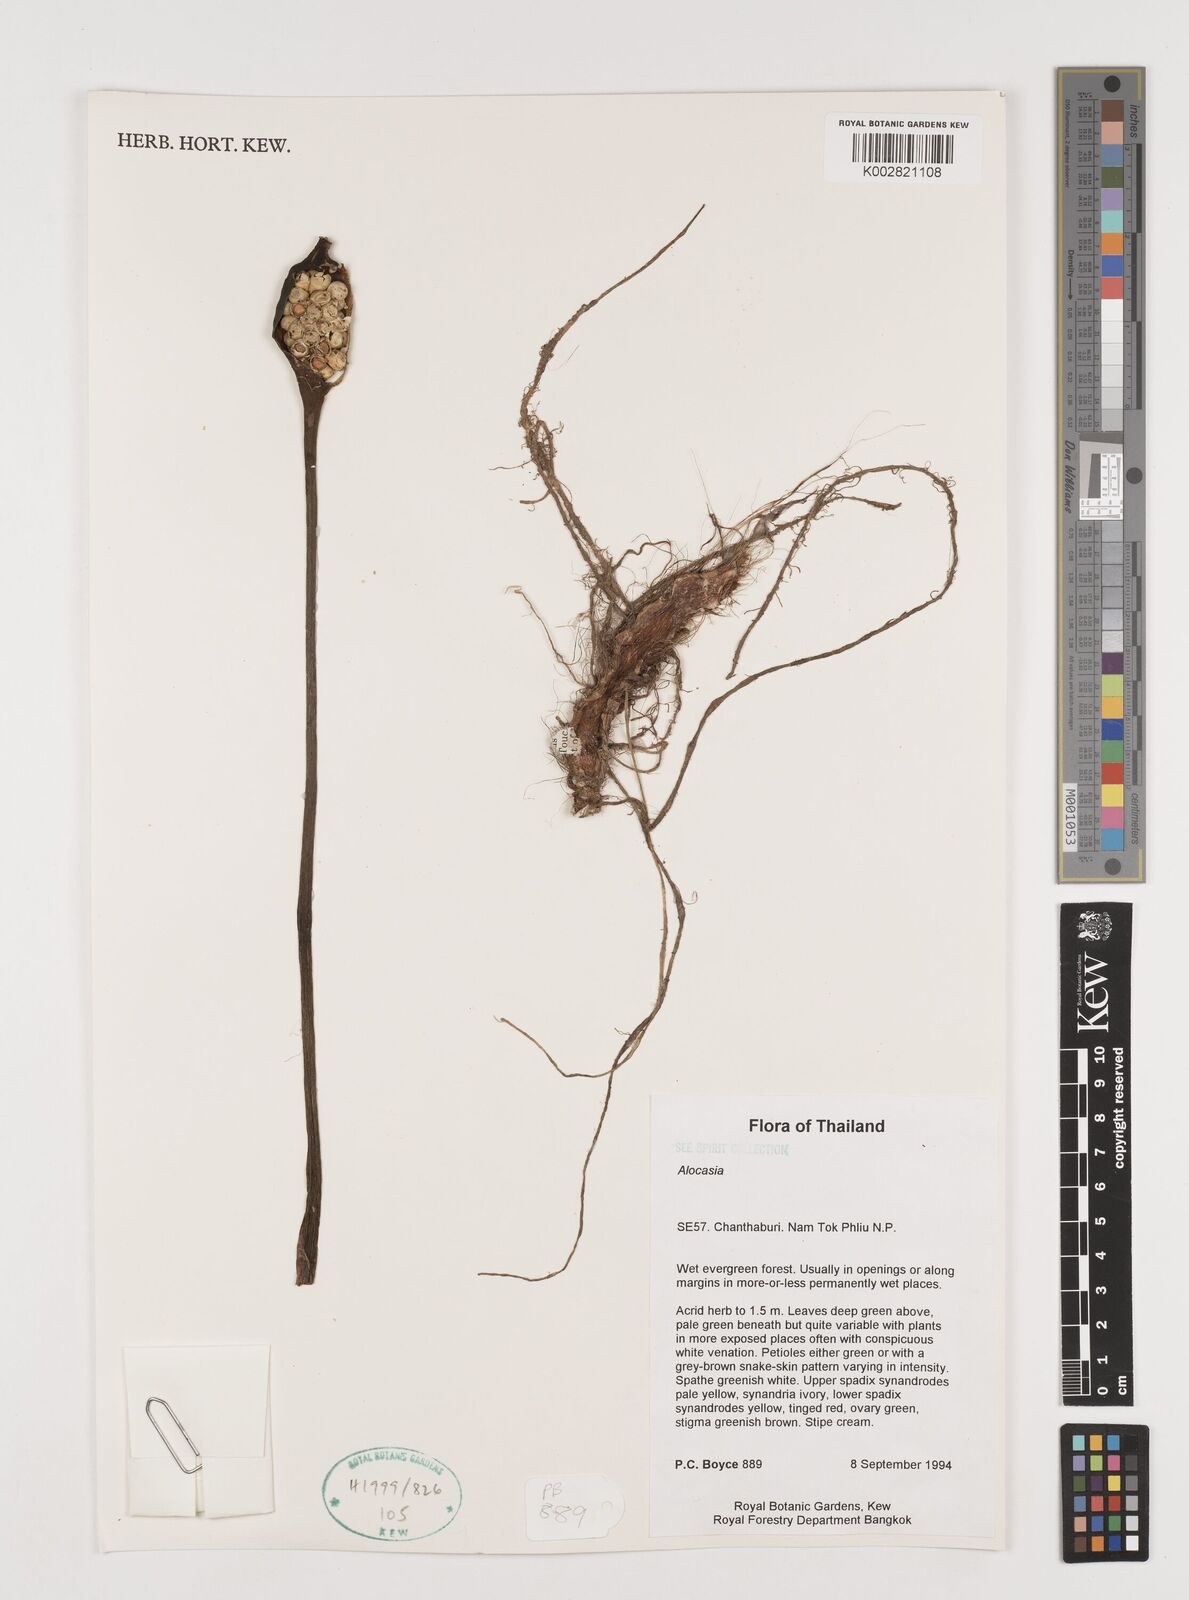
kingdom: Plantae
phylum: Tracheophyta
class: Liliopsida
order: Alismatales
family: Araceae
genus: Alocasia
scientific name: Alocasia
